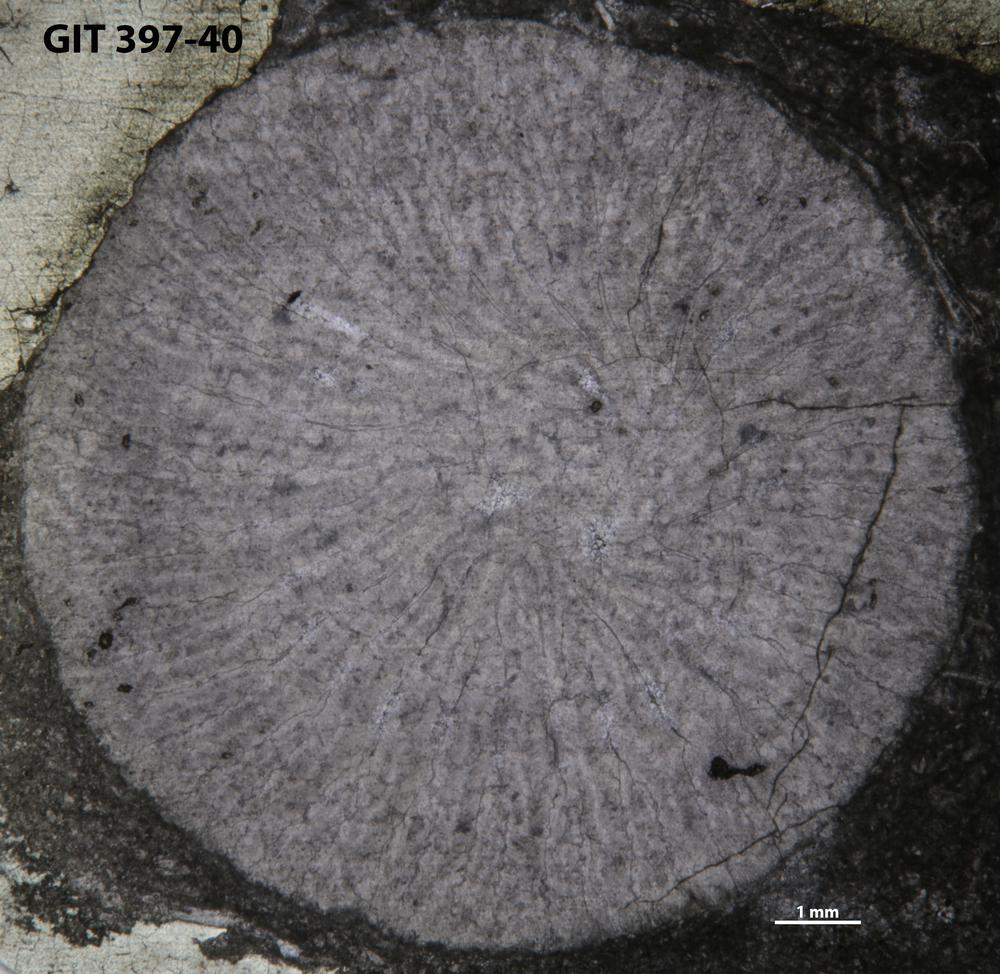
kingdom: Animalia
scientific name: Animalia
